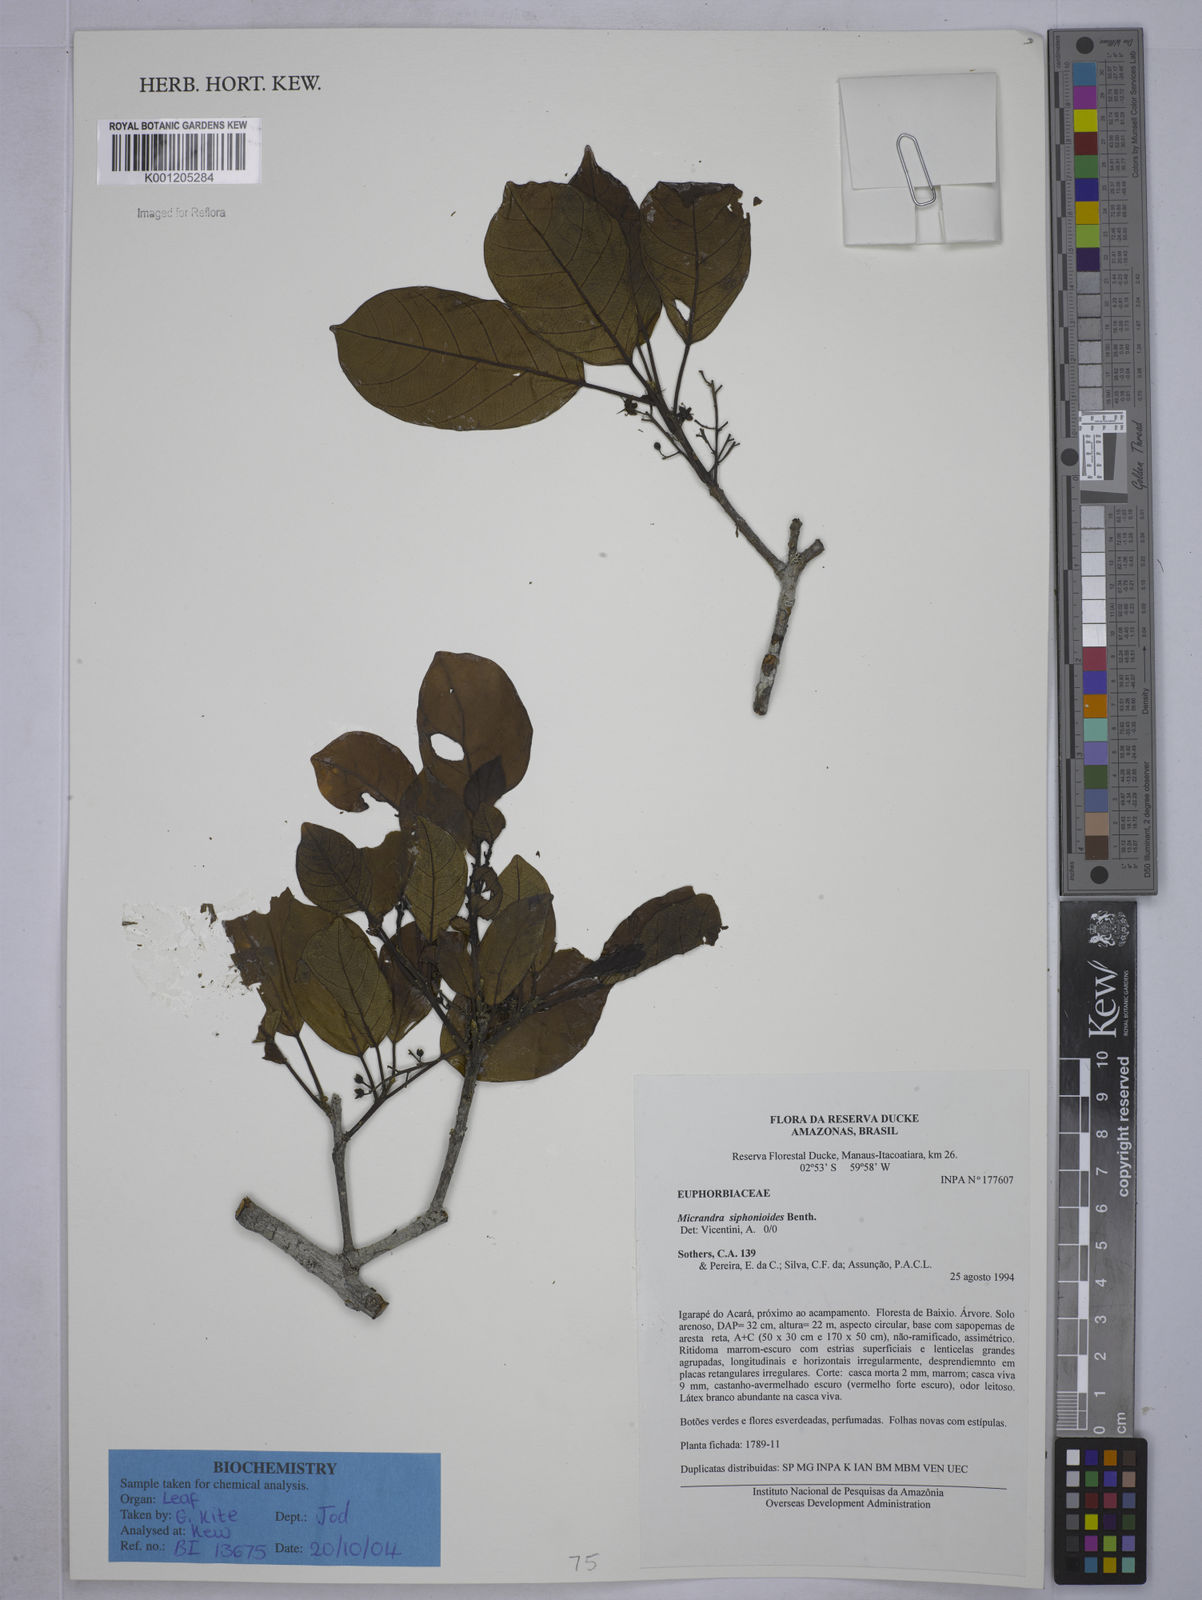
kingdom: Plantae
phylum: Tracheophyta
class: Magnoliopsida
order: Malpighiales
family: Euphorbiaceae
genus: Micrandra
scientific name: Micrandra siphonioides
